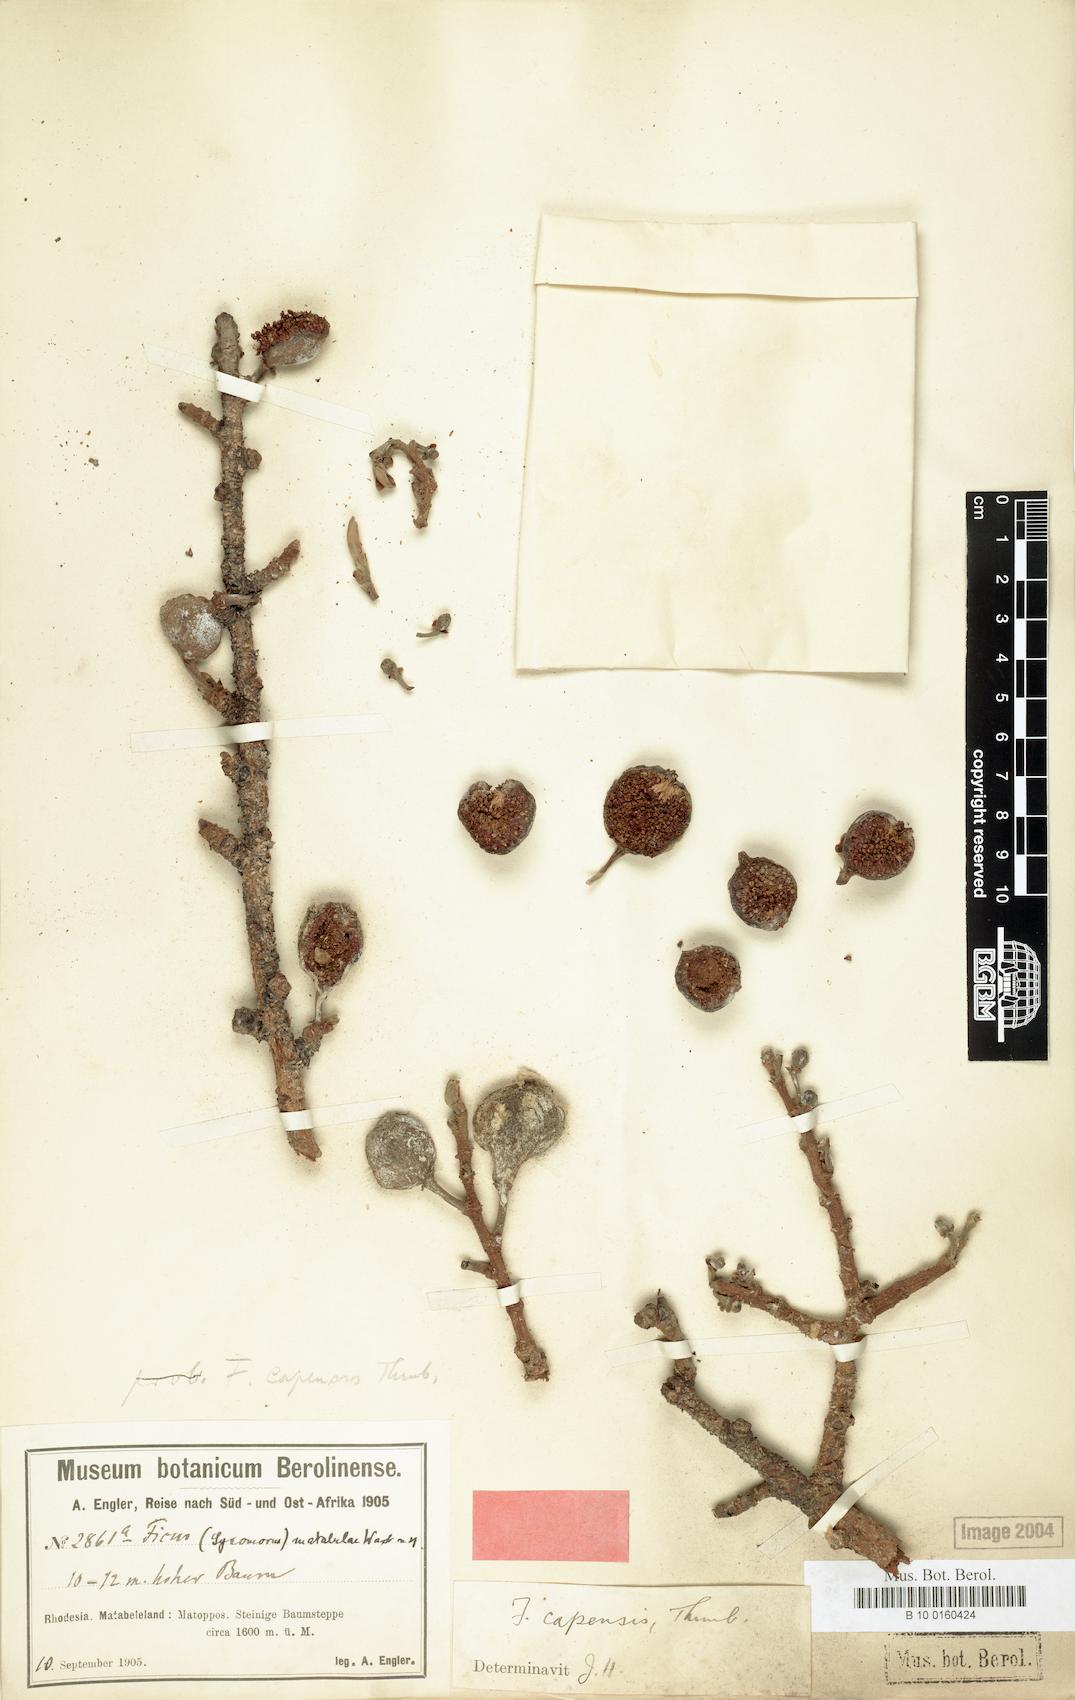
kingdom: Plantae
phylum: Tracheophyta
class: Magnoliopsida
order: Rosales
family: Moraceae
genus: Ficus
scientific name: Ficus sur
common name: Cape fig
